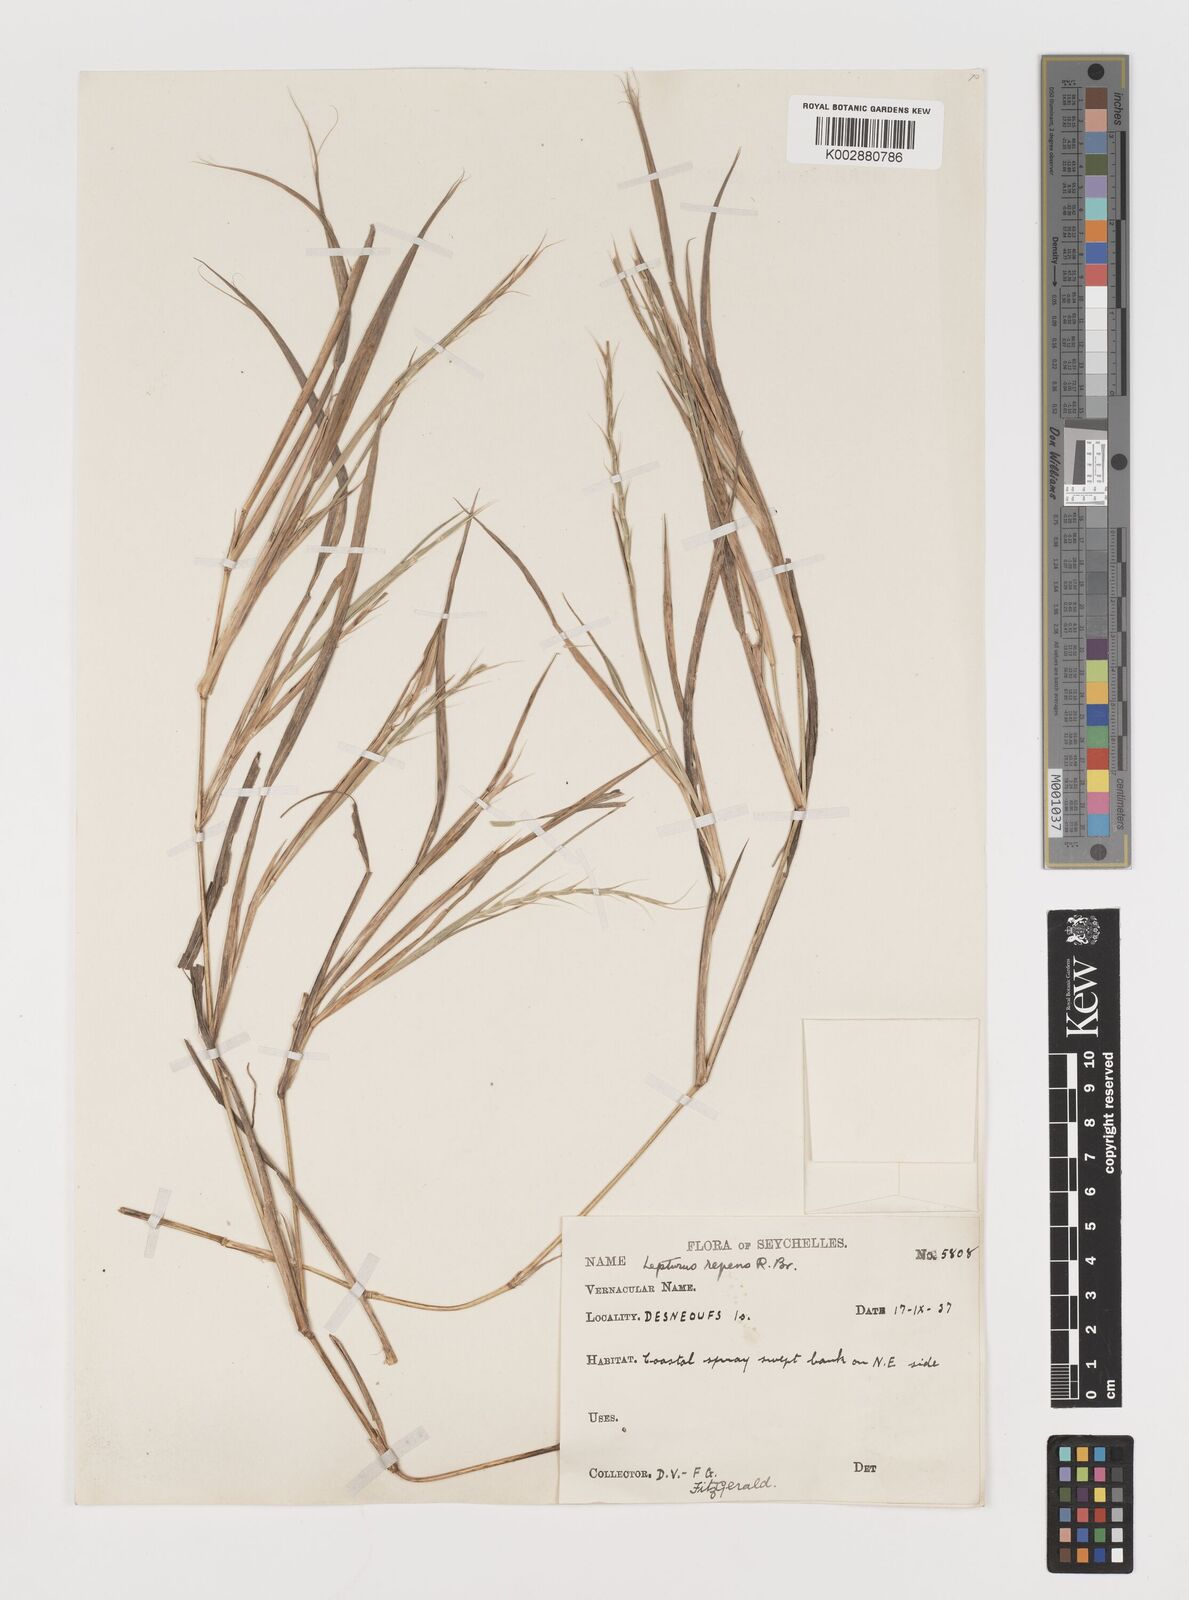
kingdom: Plantae
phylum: Tracheophyta
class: Liliopsida
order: Poales
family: Poaceae
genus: Lepturus
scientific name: Lepturus repens
